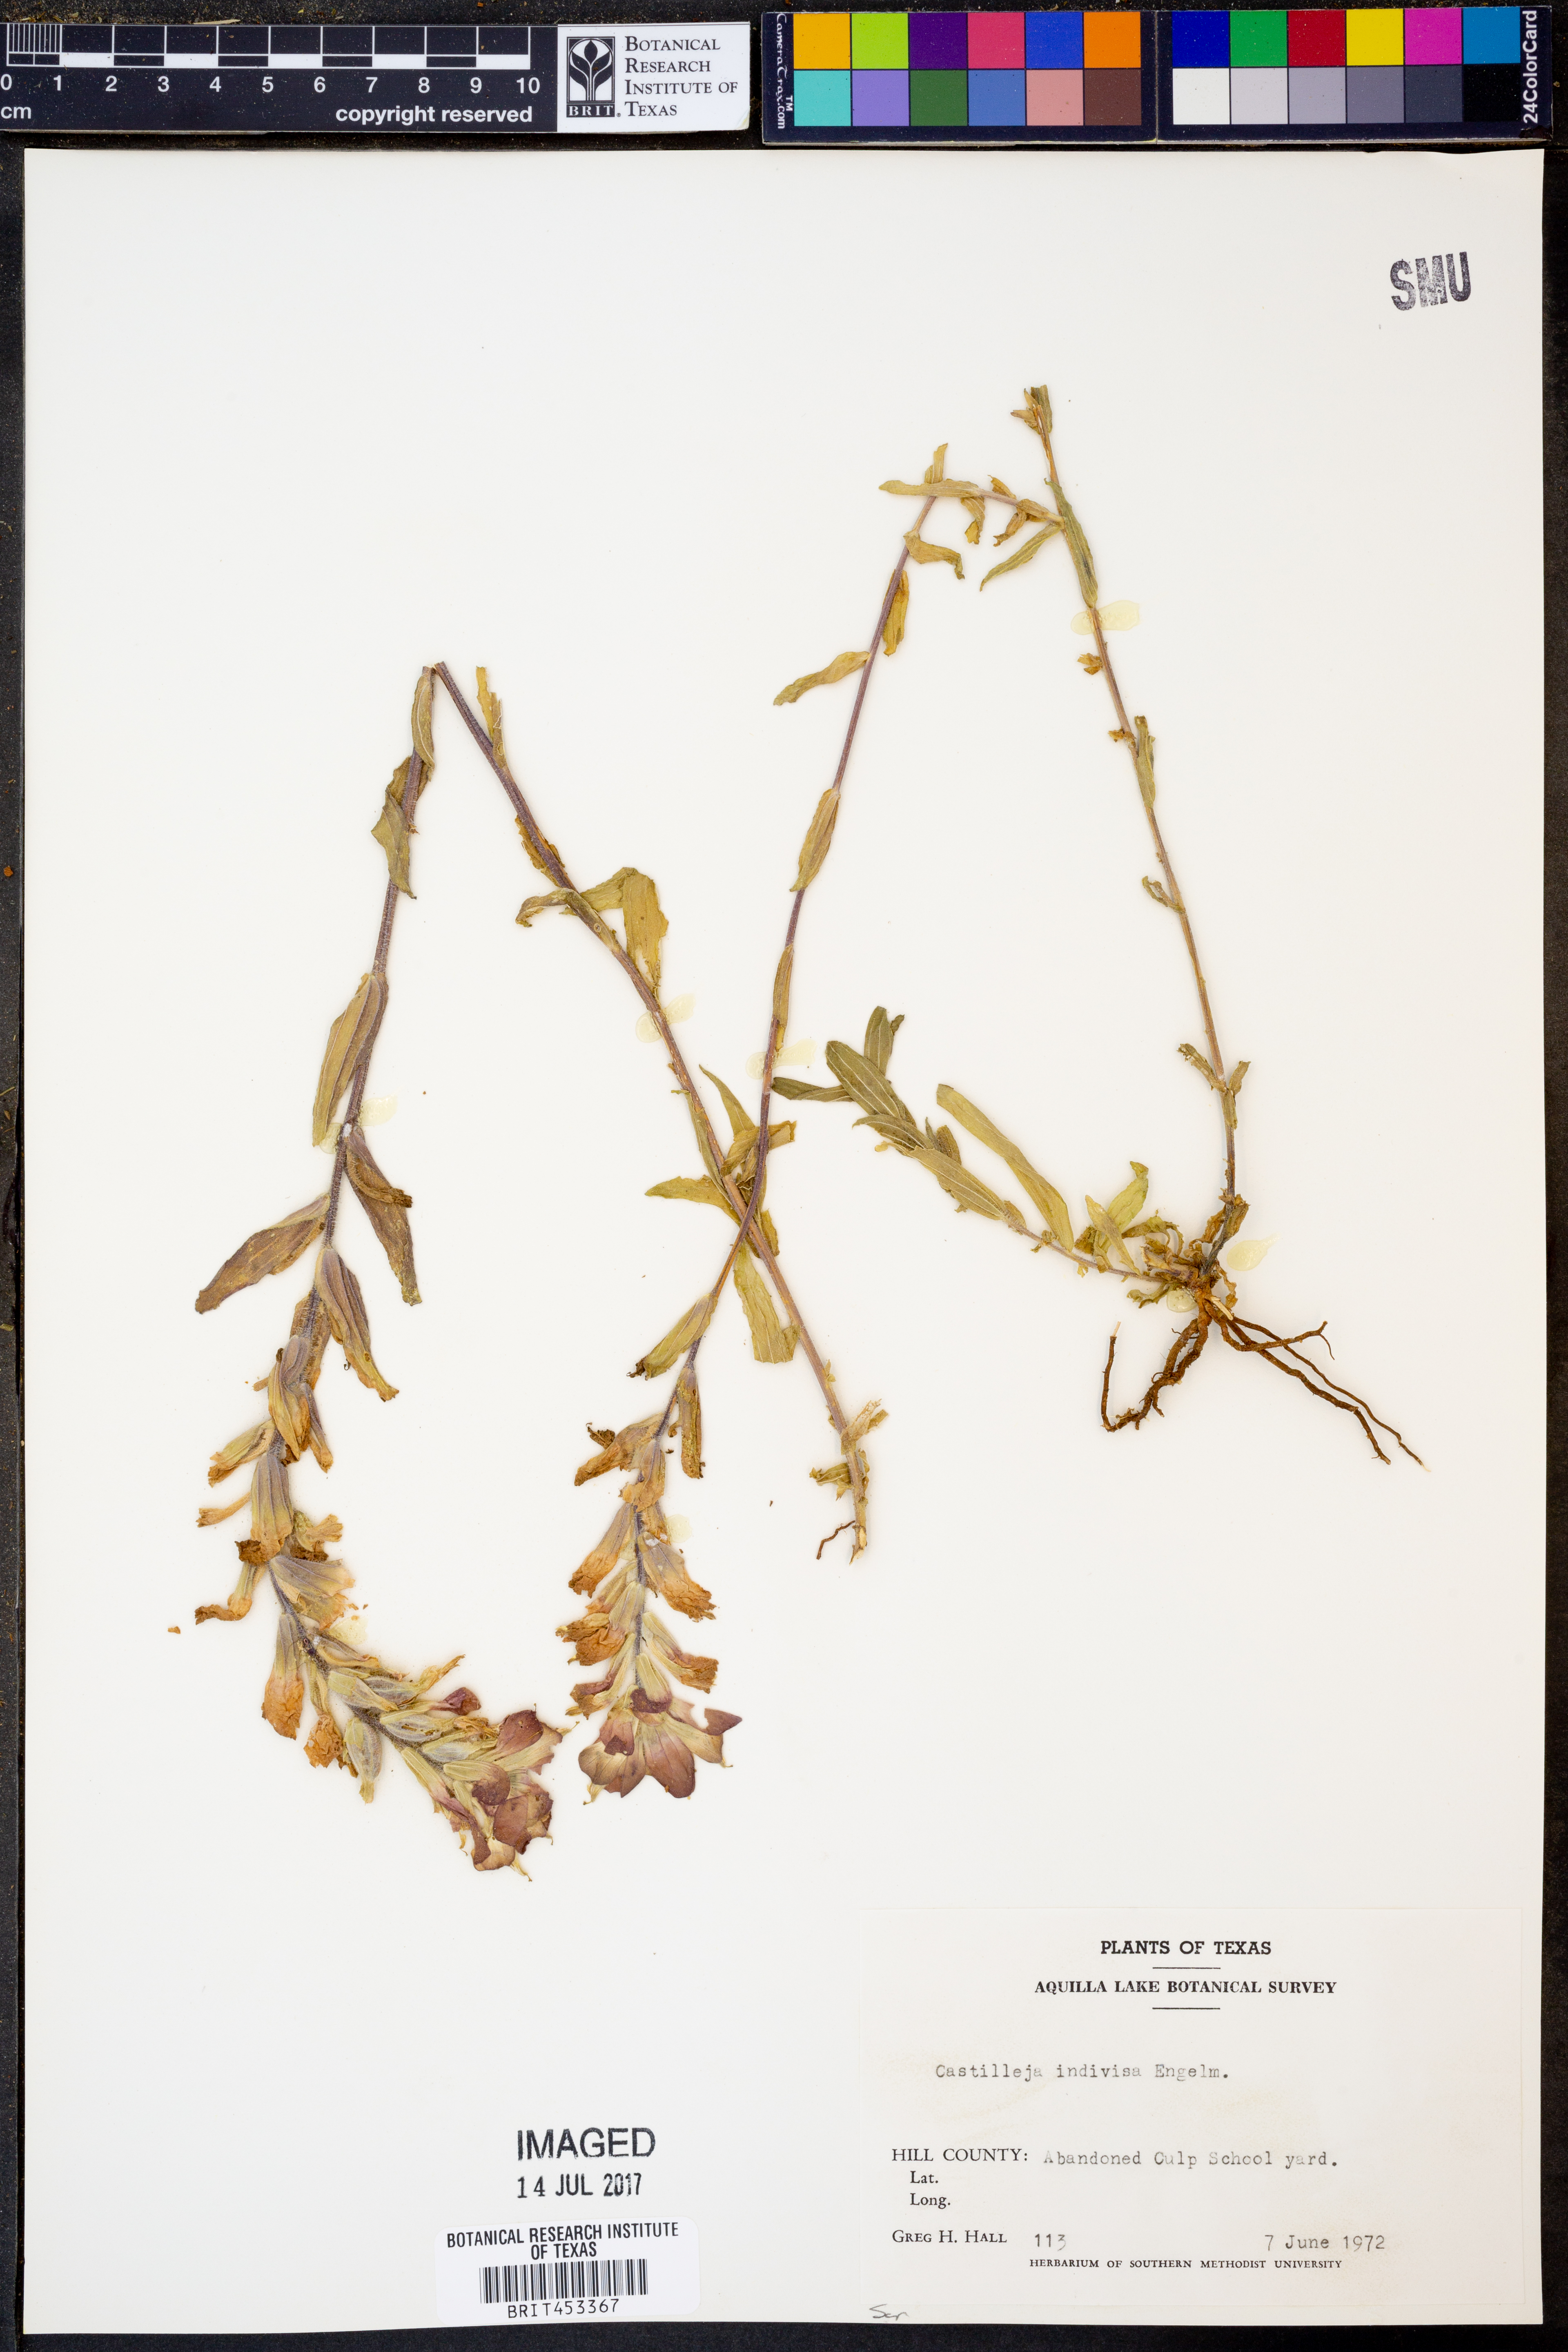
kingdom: Plantae
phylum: Tracheophyta
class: Magnoliopsida
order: Lamiales
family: Orobanchaceae
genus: Castilleja
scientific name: Castilleja indivisa
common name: Texas paintbrush
